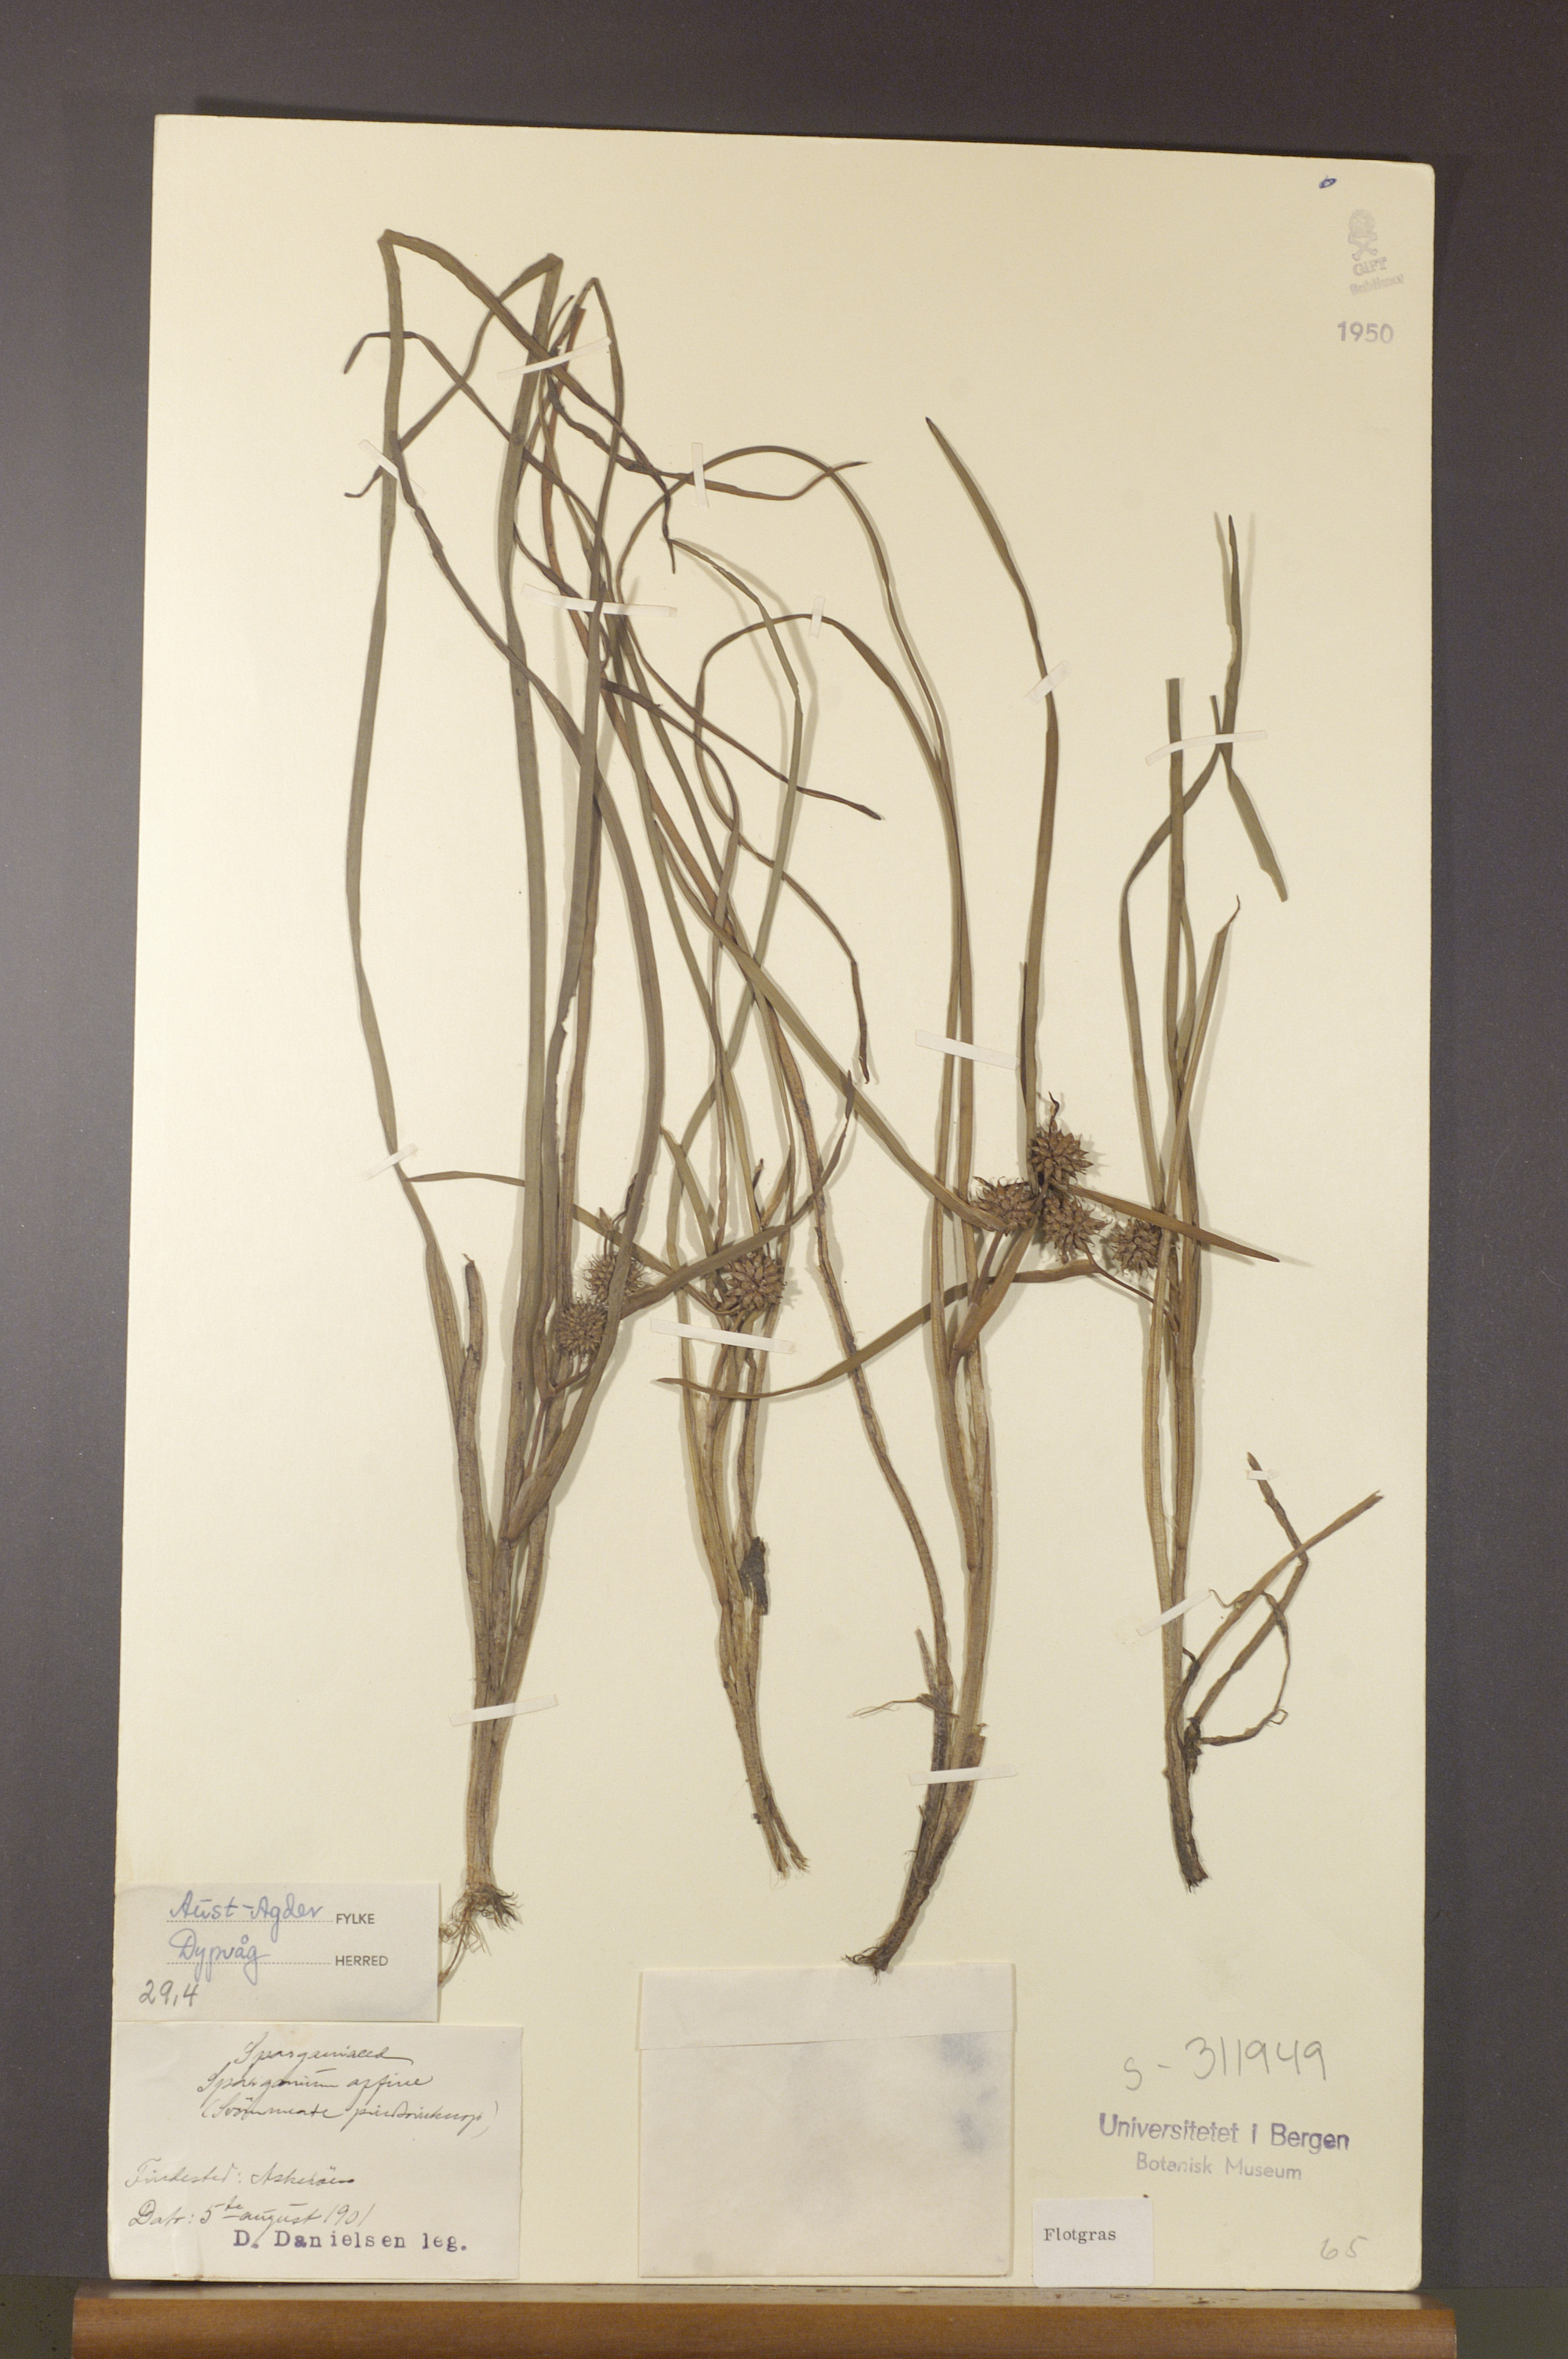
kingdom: Plantae
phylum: Tracheophyta
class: Liliopsida
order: Poales
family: Typhaceae
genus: Sparganium
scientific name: Sparganium angustifolium
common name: Floating bur-reed
